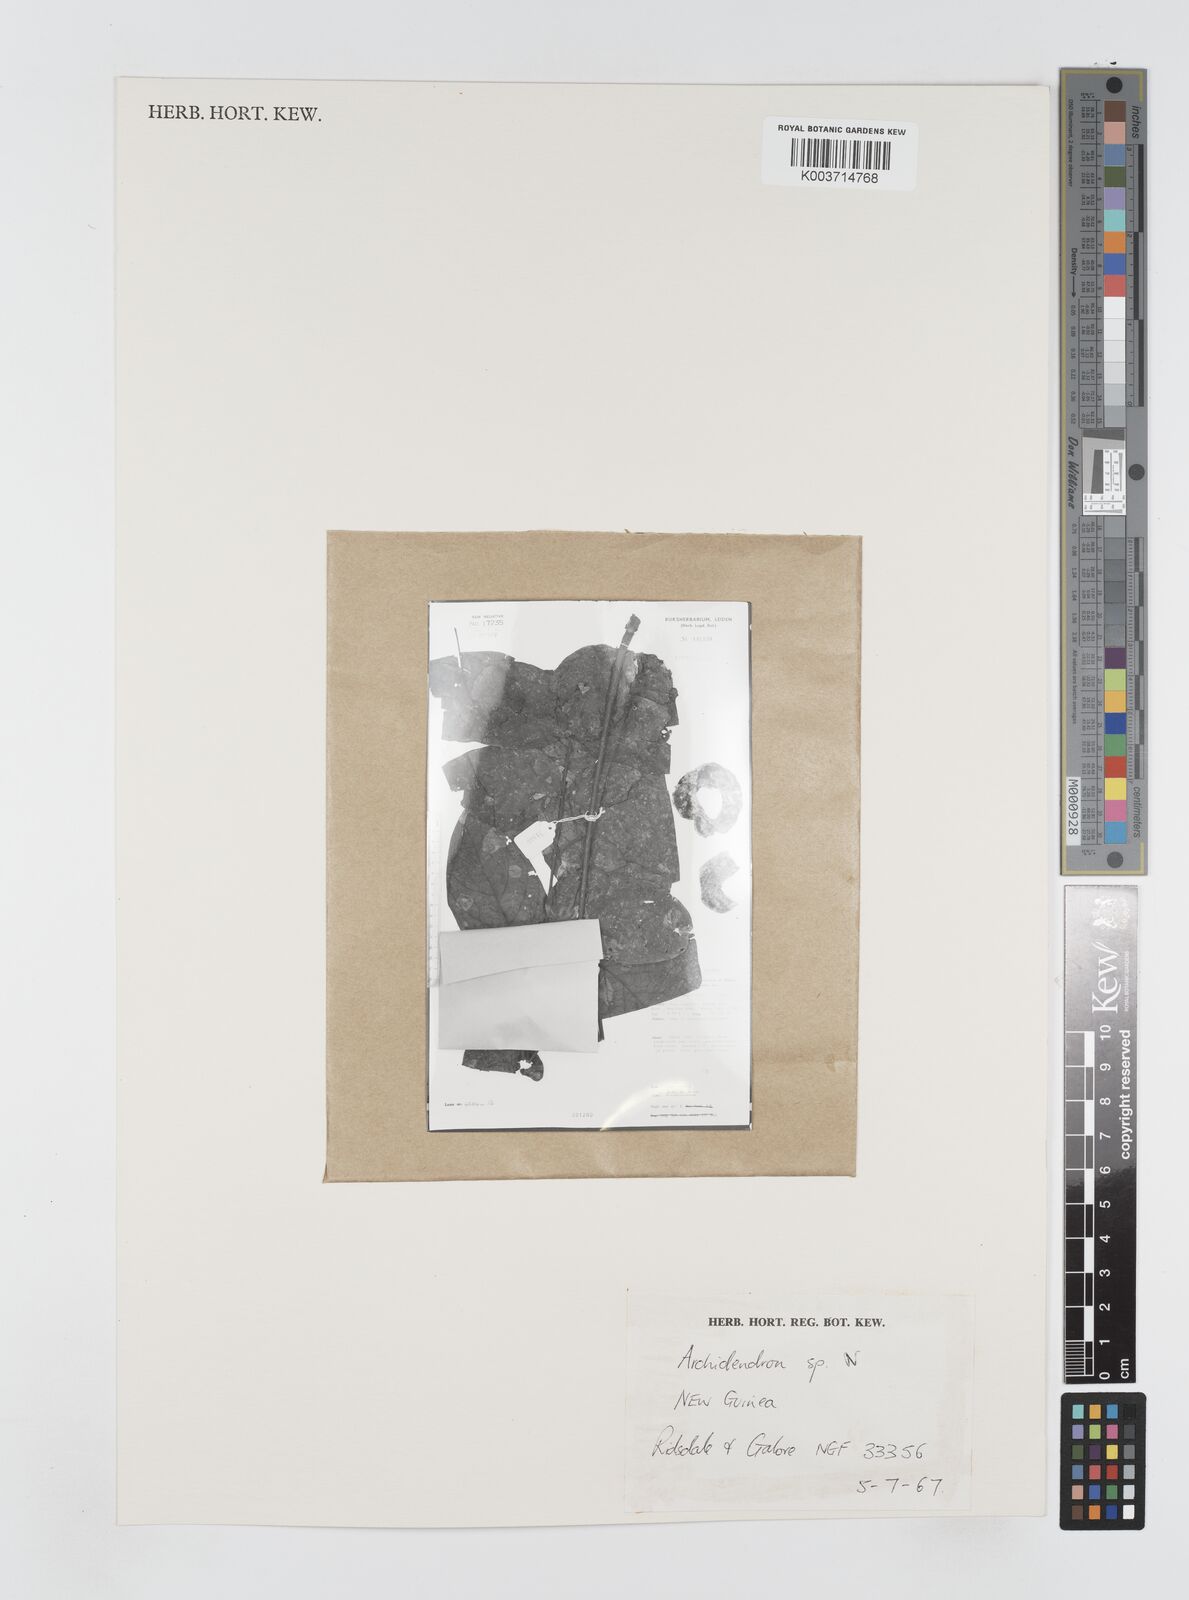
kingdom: Plantae
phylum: Tracheophyta
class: Magnoliopsida
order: Fabales
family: Fabaceae
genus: Archidendron
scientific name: Archidendron
